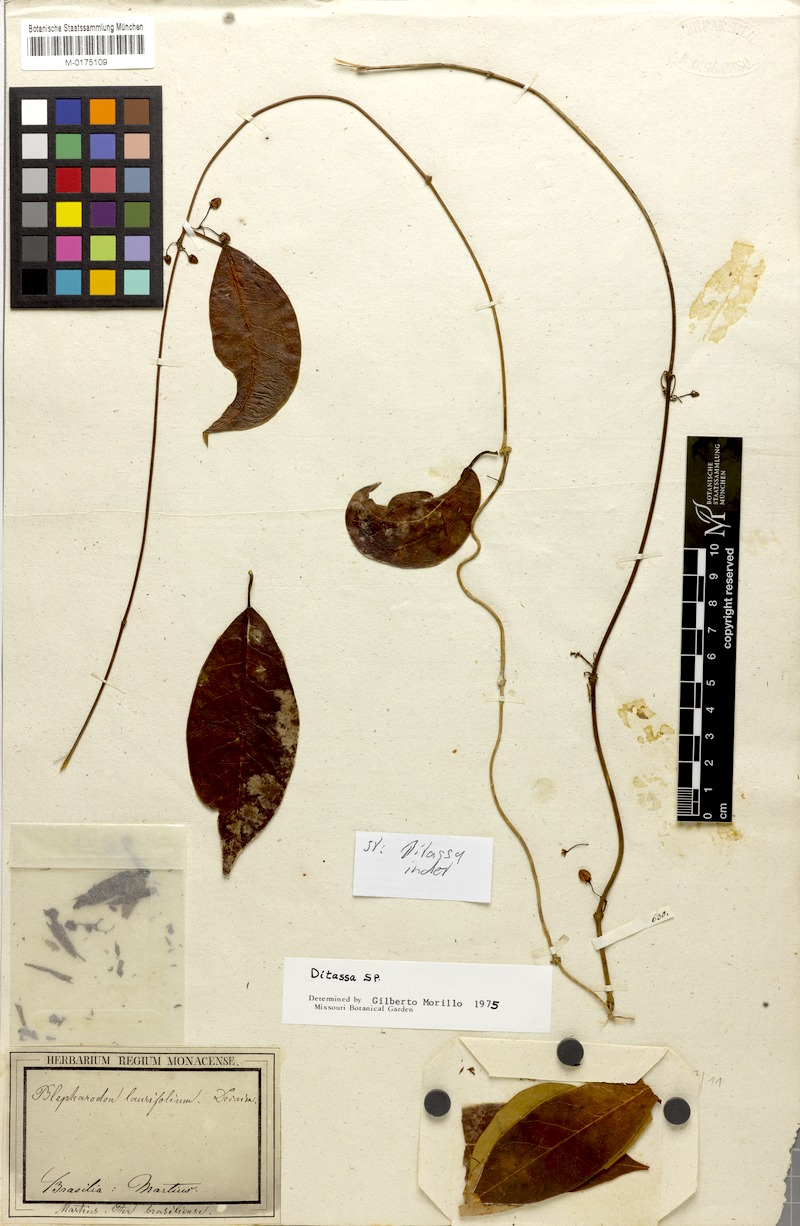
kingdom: Plantae
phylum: Tracheophyta
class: Magnoliopsida
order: Gentianales
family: Apocynaceae
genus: Nephradenia
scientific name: Nephradenia laurifolia
